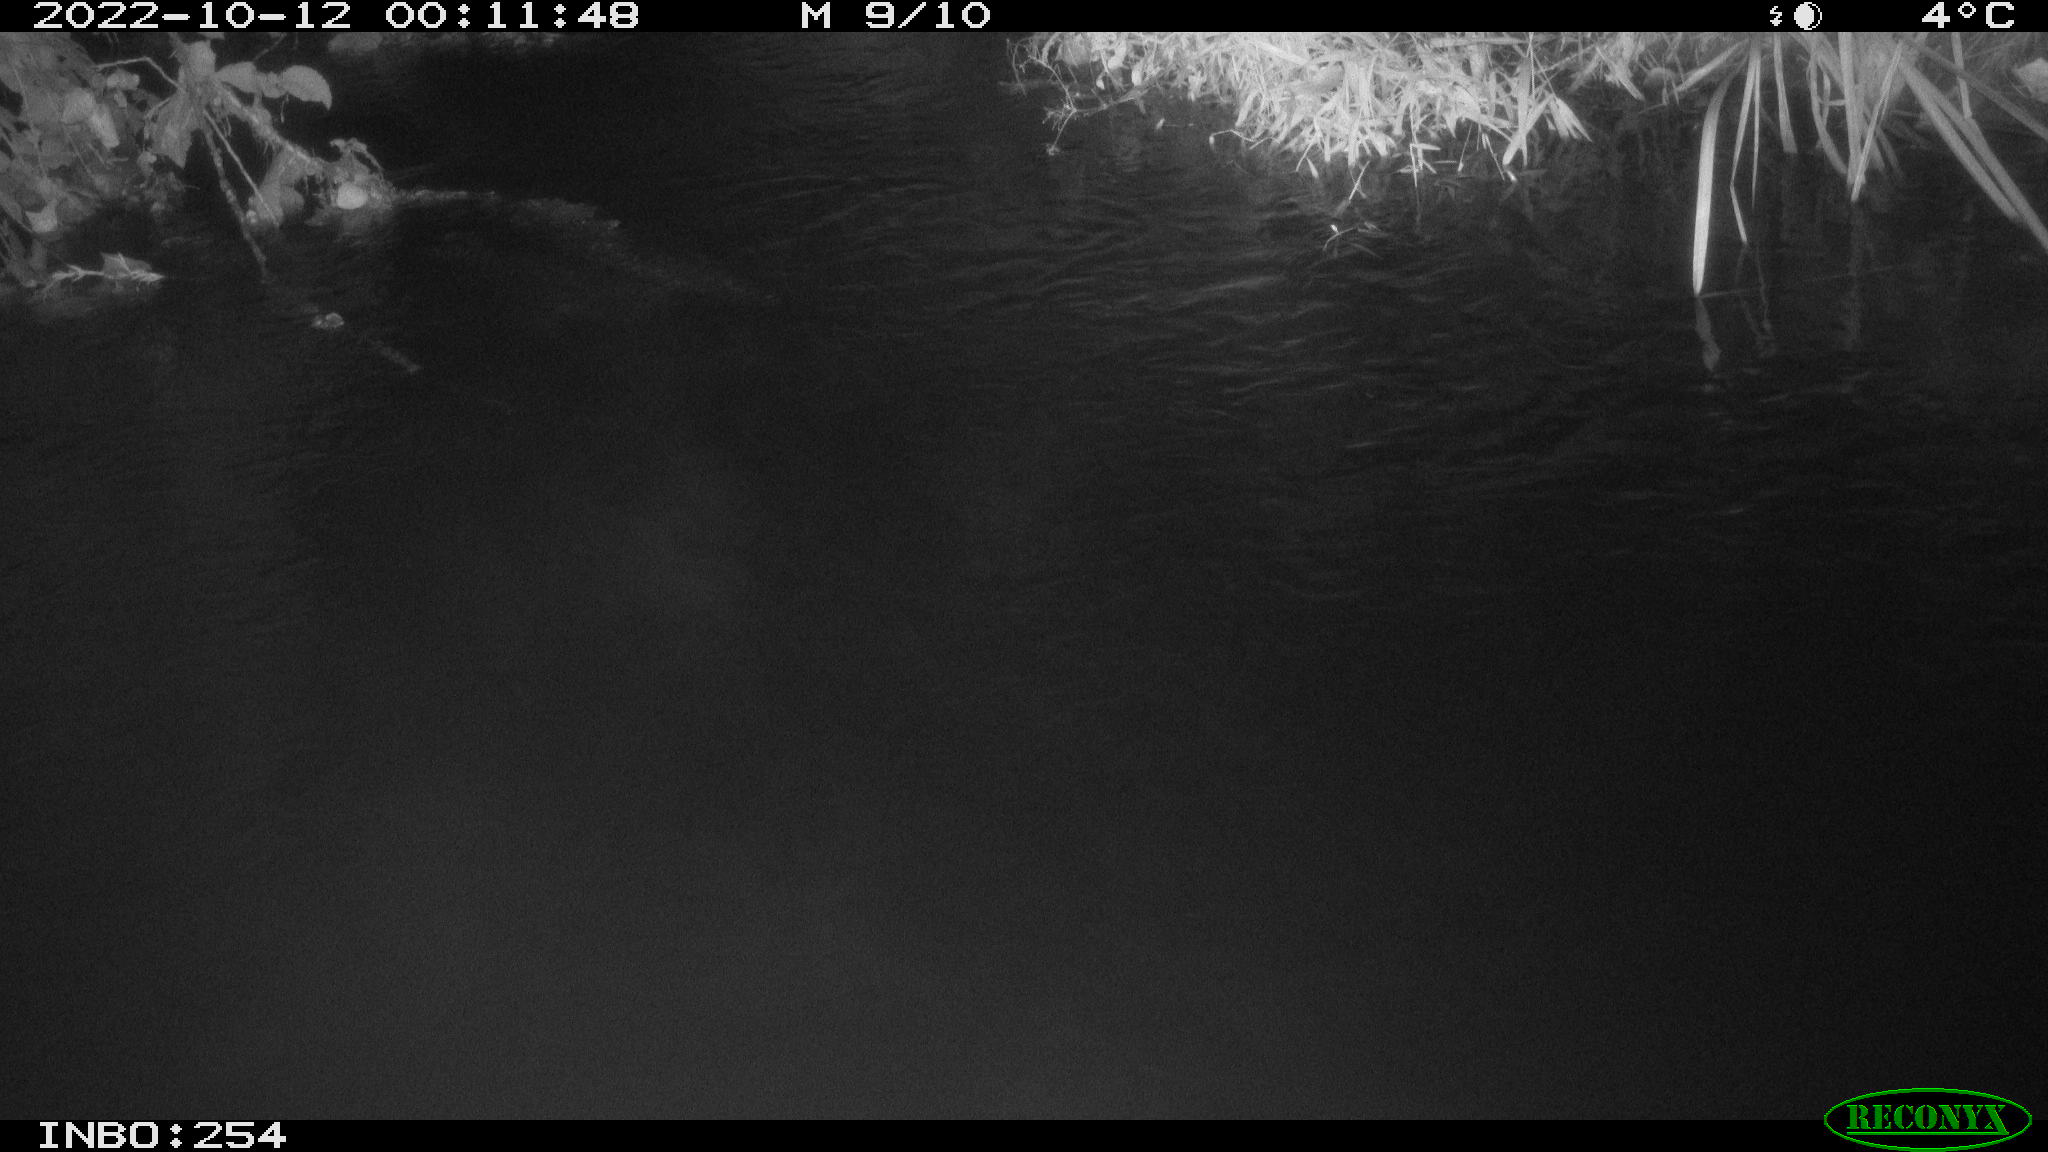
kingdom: Animalia
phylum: Chordata
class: Aves
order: Anseriformes
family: Anatidae
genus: Anas
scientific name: Anas
